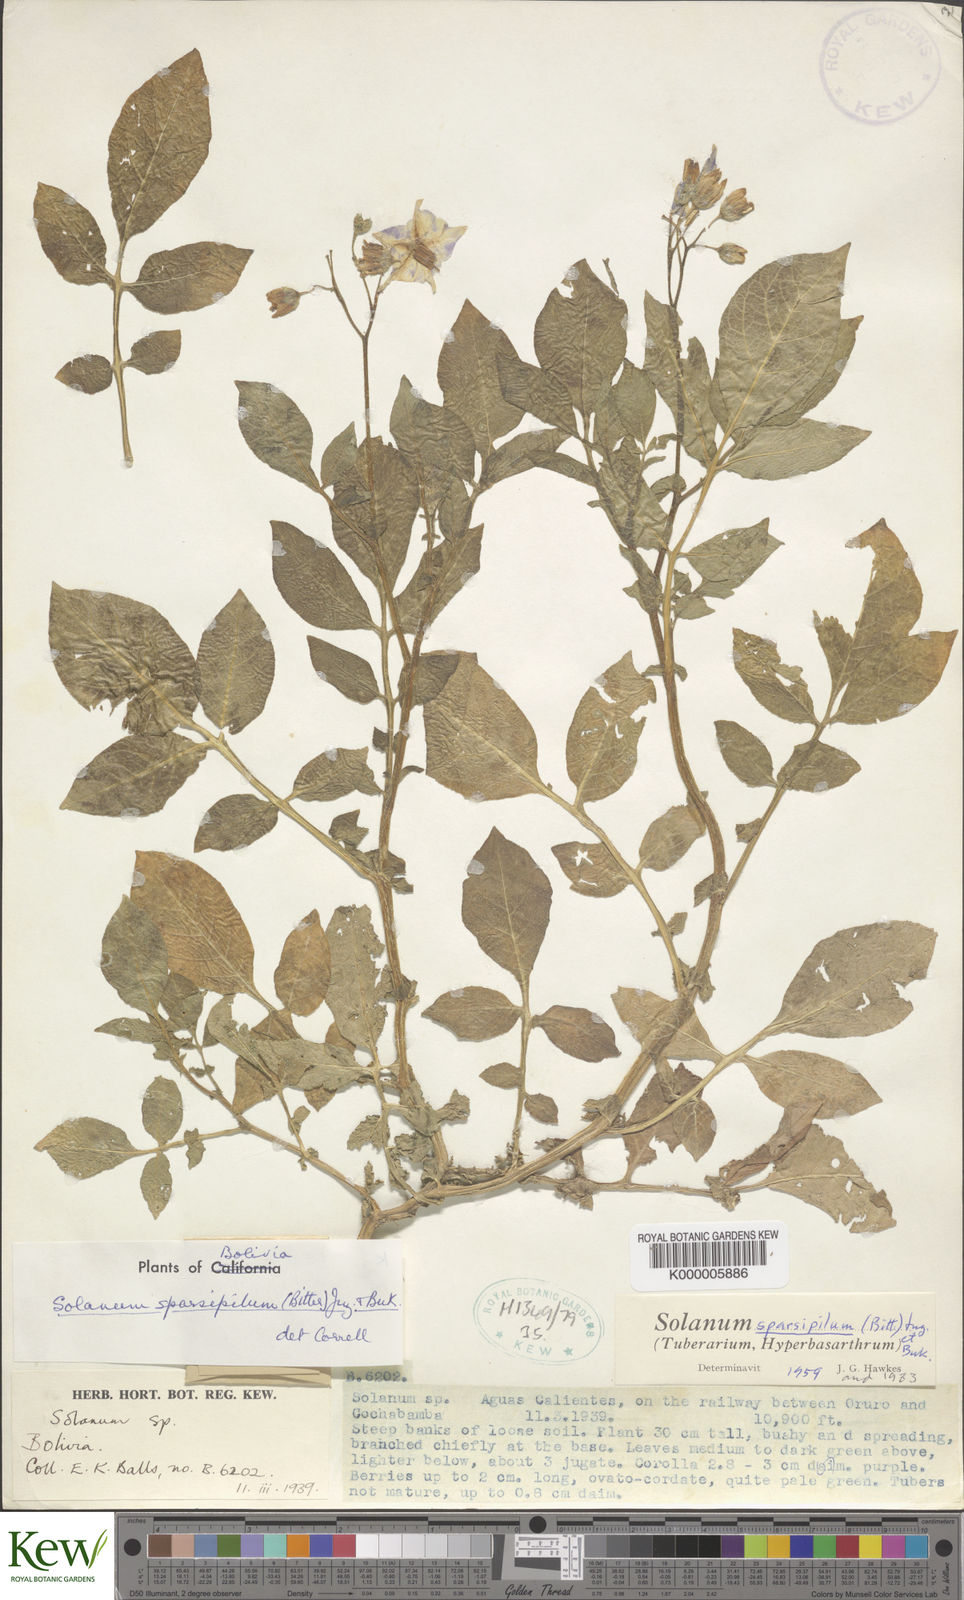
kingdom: Plantae
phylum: Tracheophyta
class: Magnoliopsida
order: Solanales
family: Solanaceae
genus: Solanum
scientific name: Solanum brevicaule
